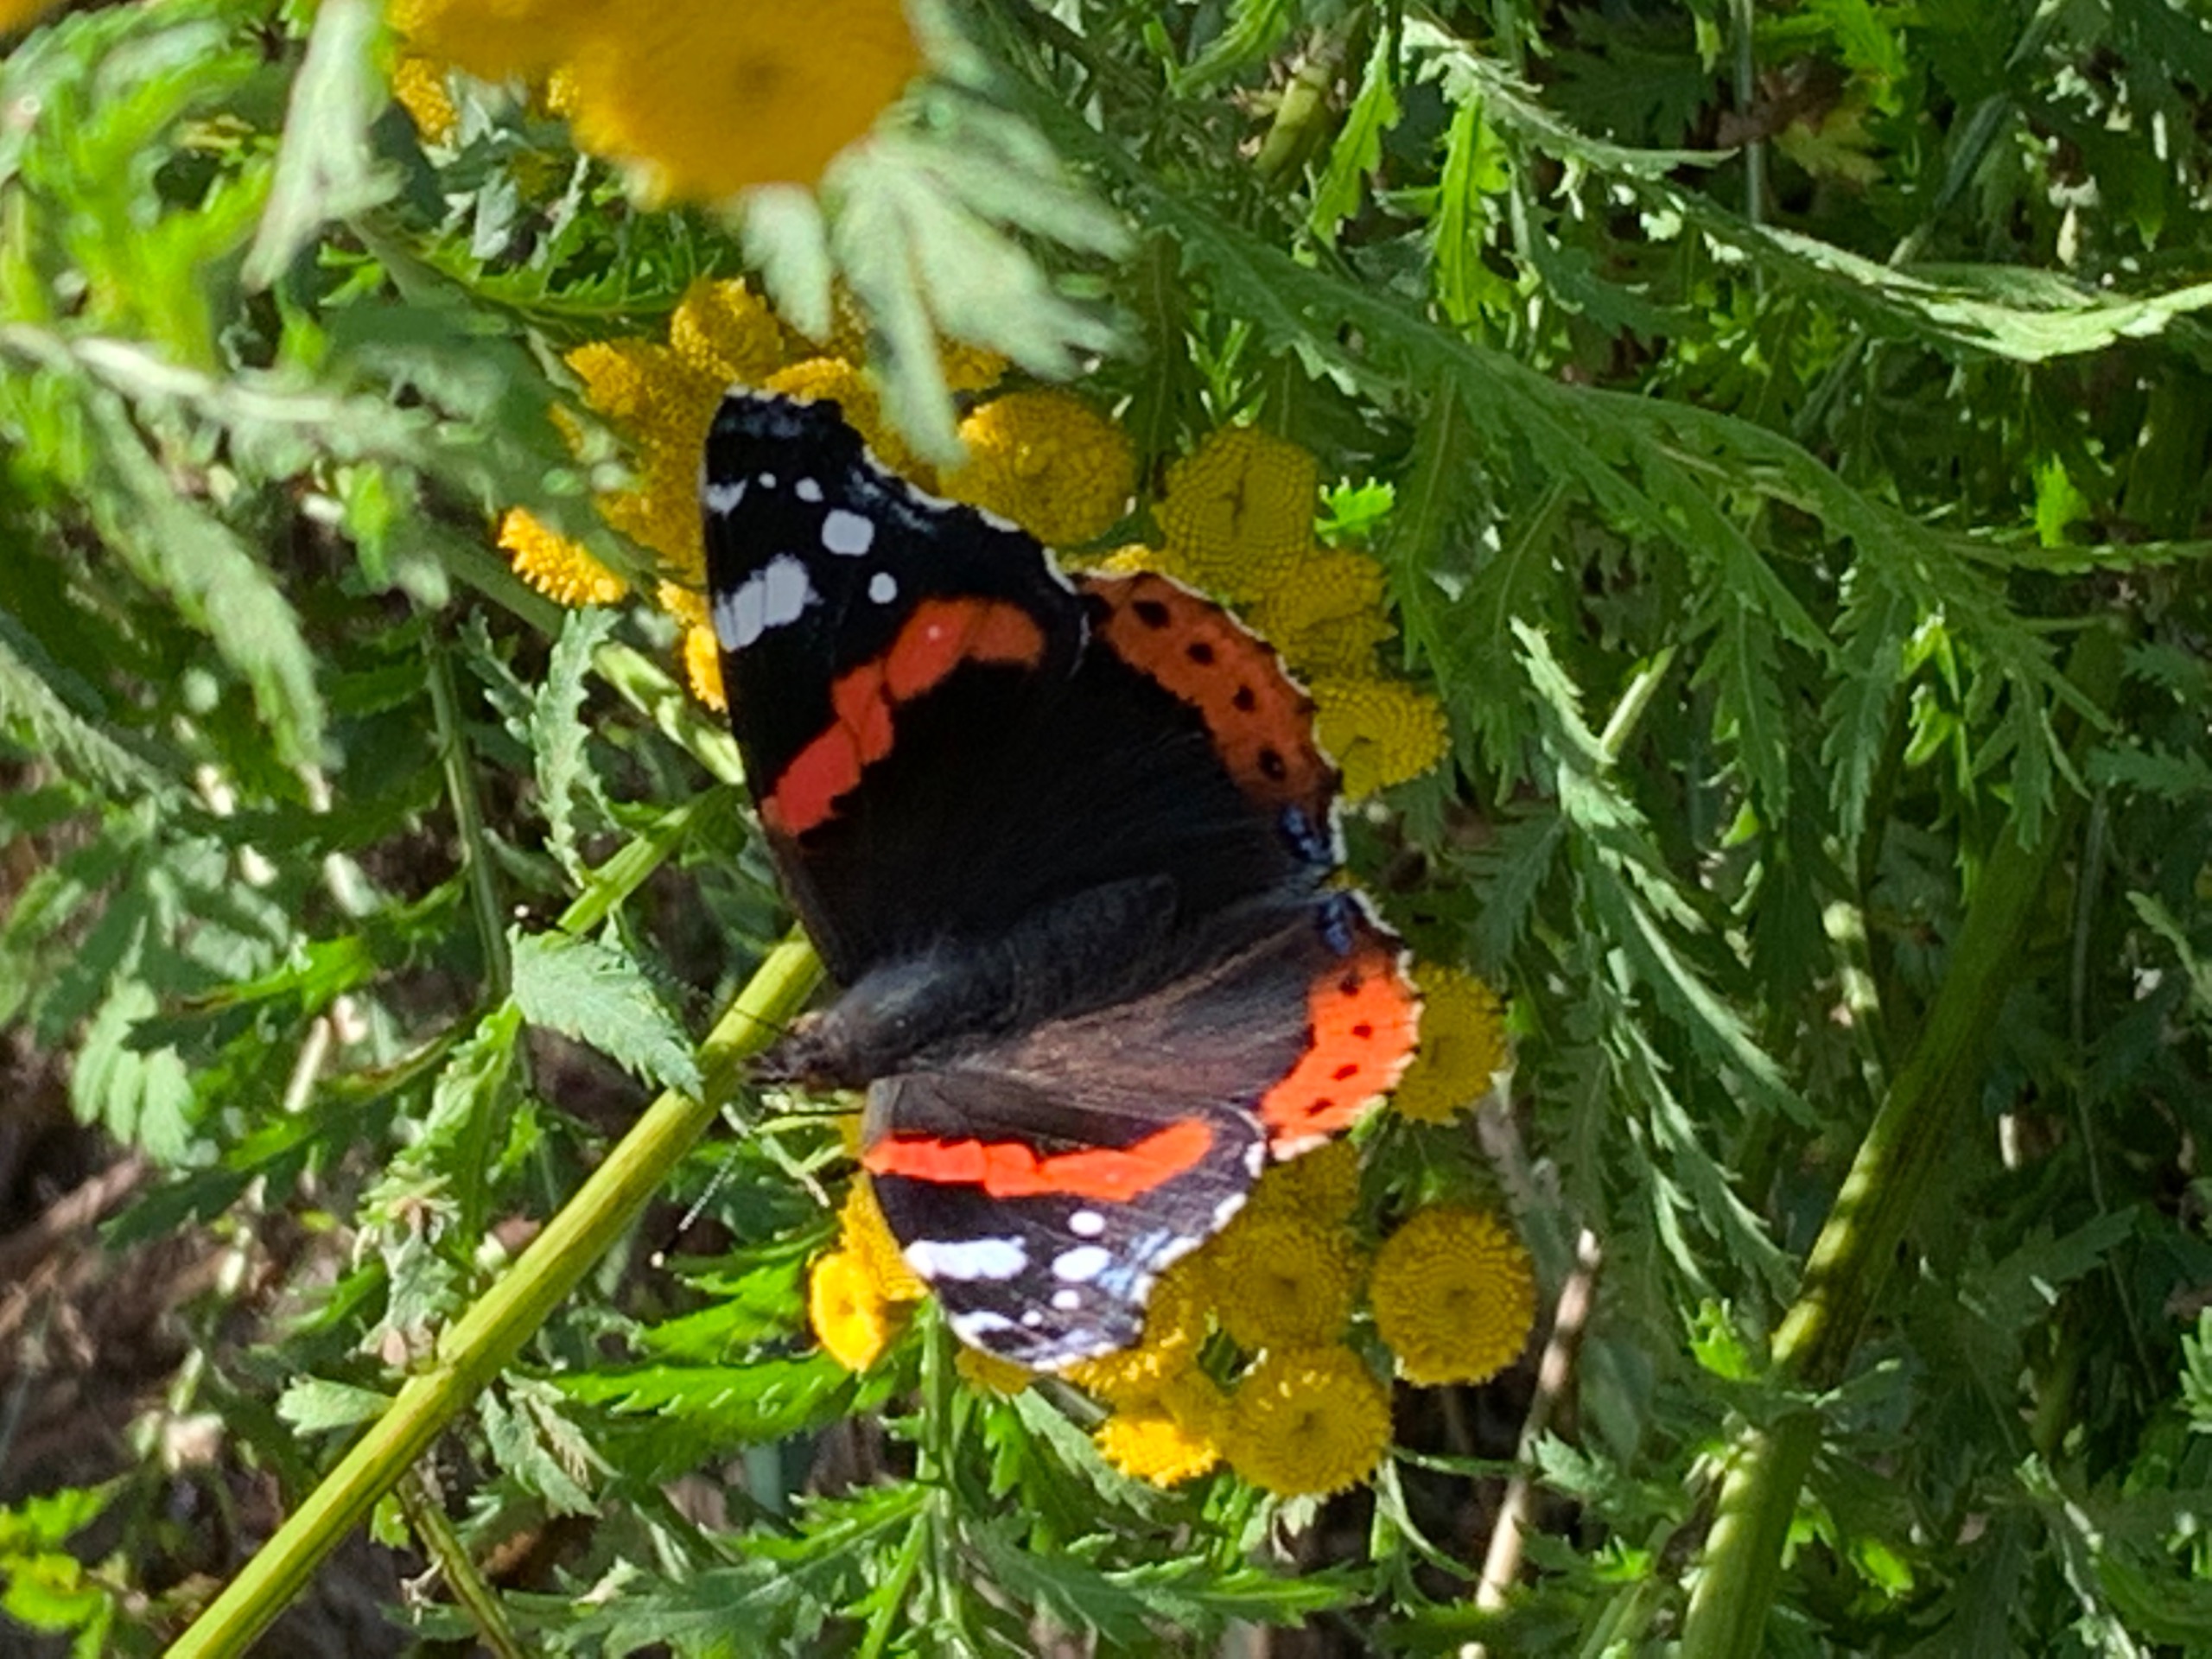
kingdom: Animalia
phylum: Arthropoda
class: Insecta
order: Lepidoptera
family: Nymphalidae
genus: Vanessa
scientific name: Vanessa atalanta
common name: Admiral
